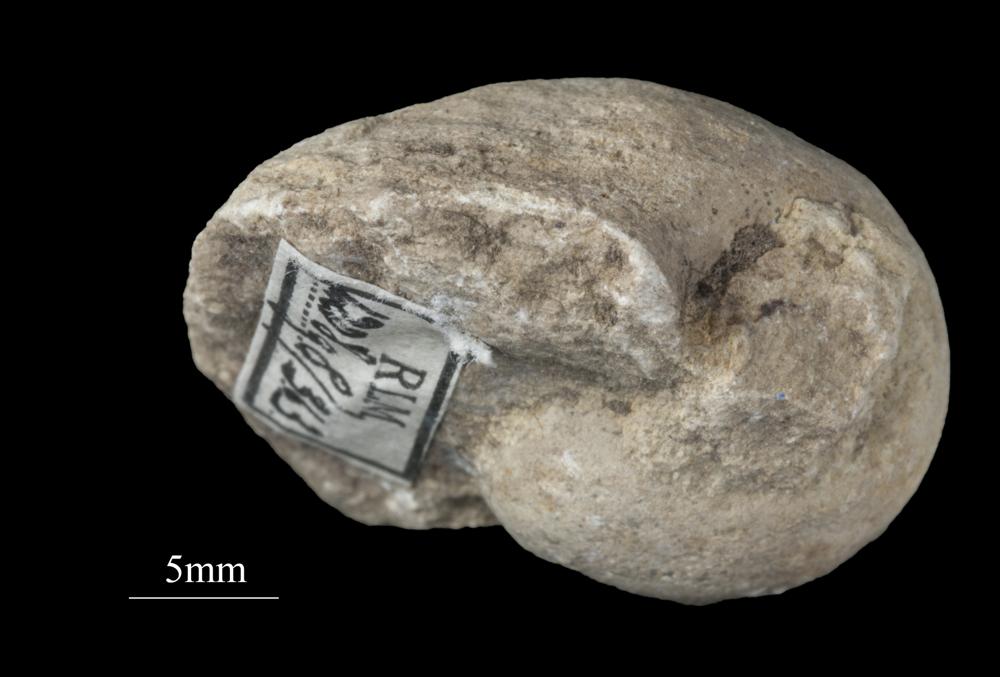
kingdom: Animalia
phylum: Mollusca
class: Gastropoda
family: Bellerophontidae
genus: Bellerophon
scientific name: Bellerophon
